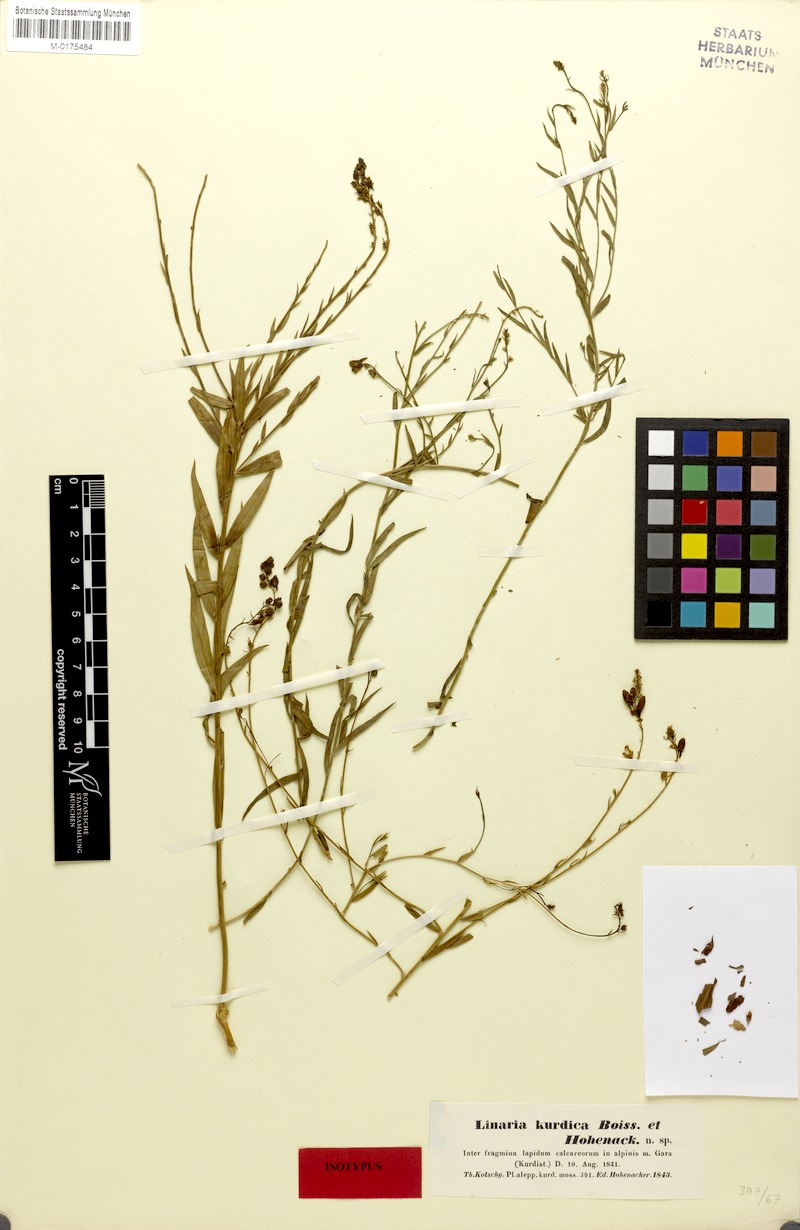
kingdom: Plantae
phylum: Tracheophyta
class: Magnoliopsida
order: Lamiales
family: Plantaginaceae
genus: Linaria
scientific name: Linaria kurdica
